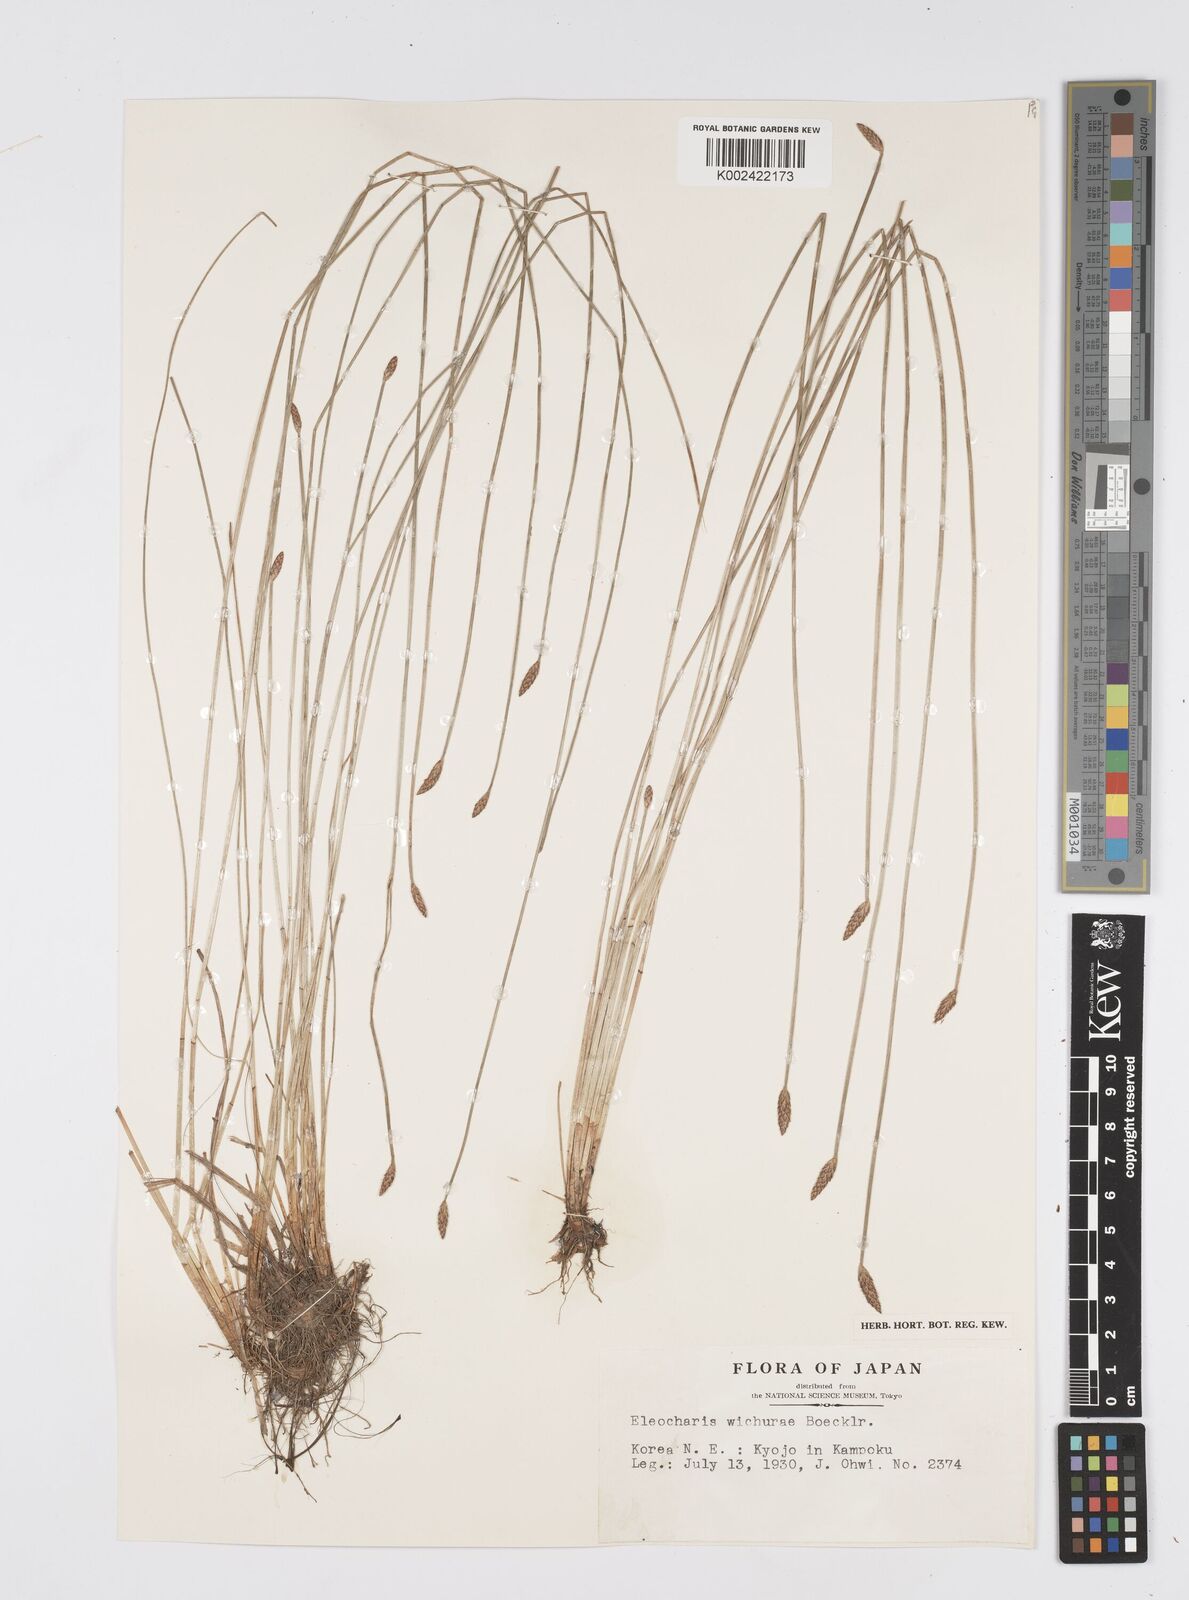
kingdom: Plantae
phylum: Tracheophyta
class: Liliopsida
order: Poales
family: Cyperaceae
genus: Eleocharis
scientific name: Eleocharis tetraquetra
